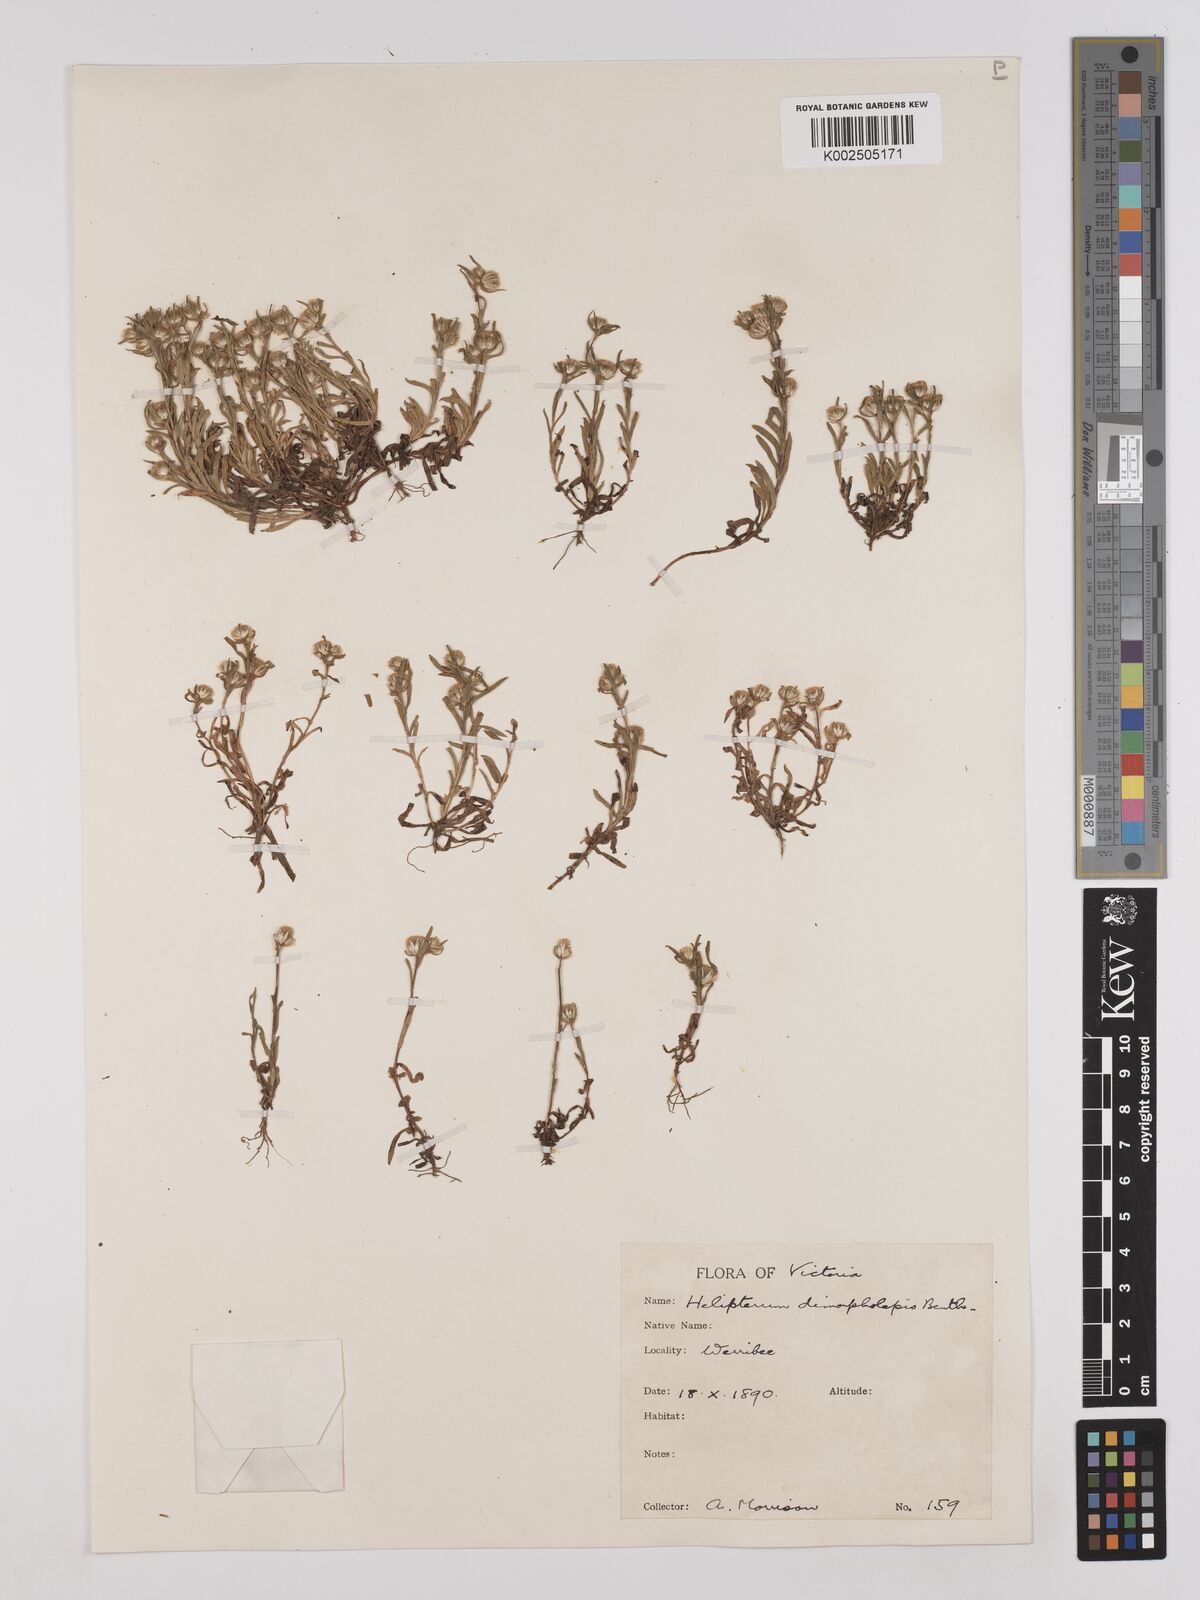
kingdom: Plantae
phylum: Tracheophyta
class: Magnoliopsida
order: Asterales
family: Asteraceae
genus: Triptilodiscus
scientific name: Triptilodiscus pygmaeus
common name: Common sunray
